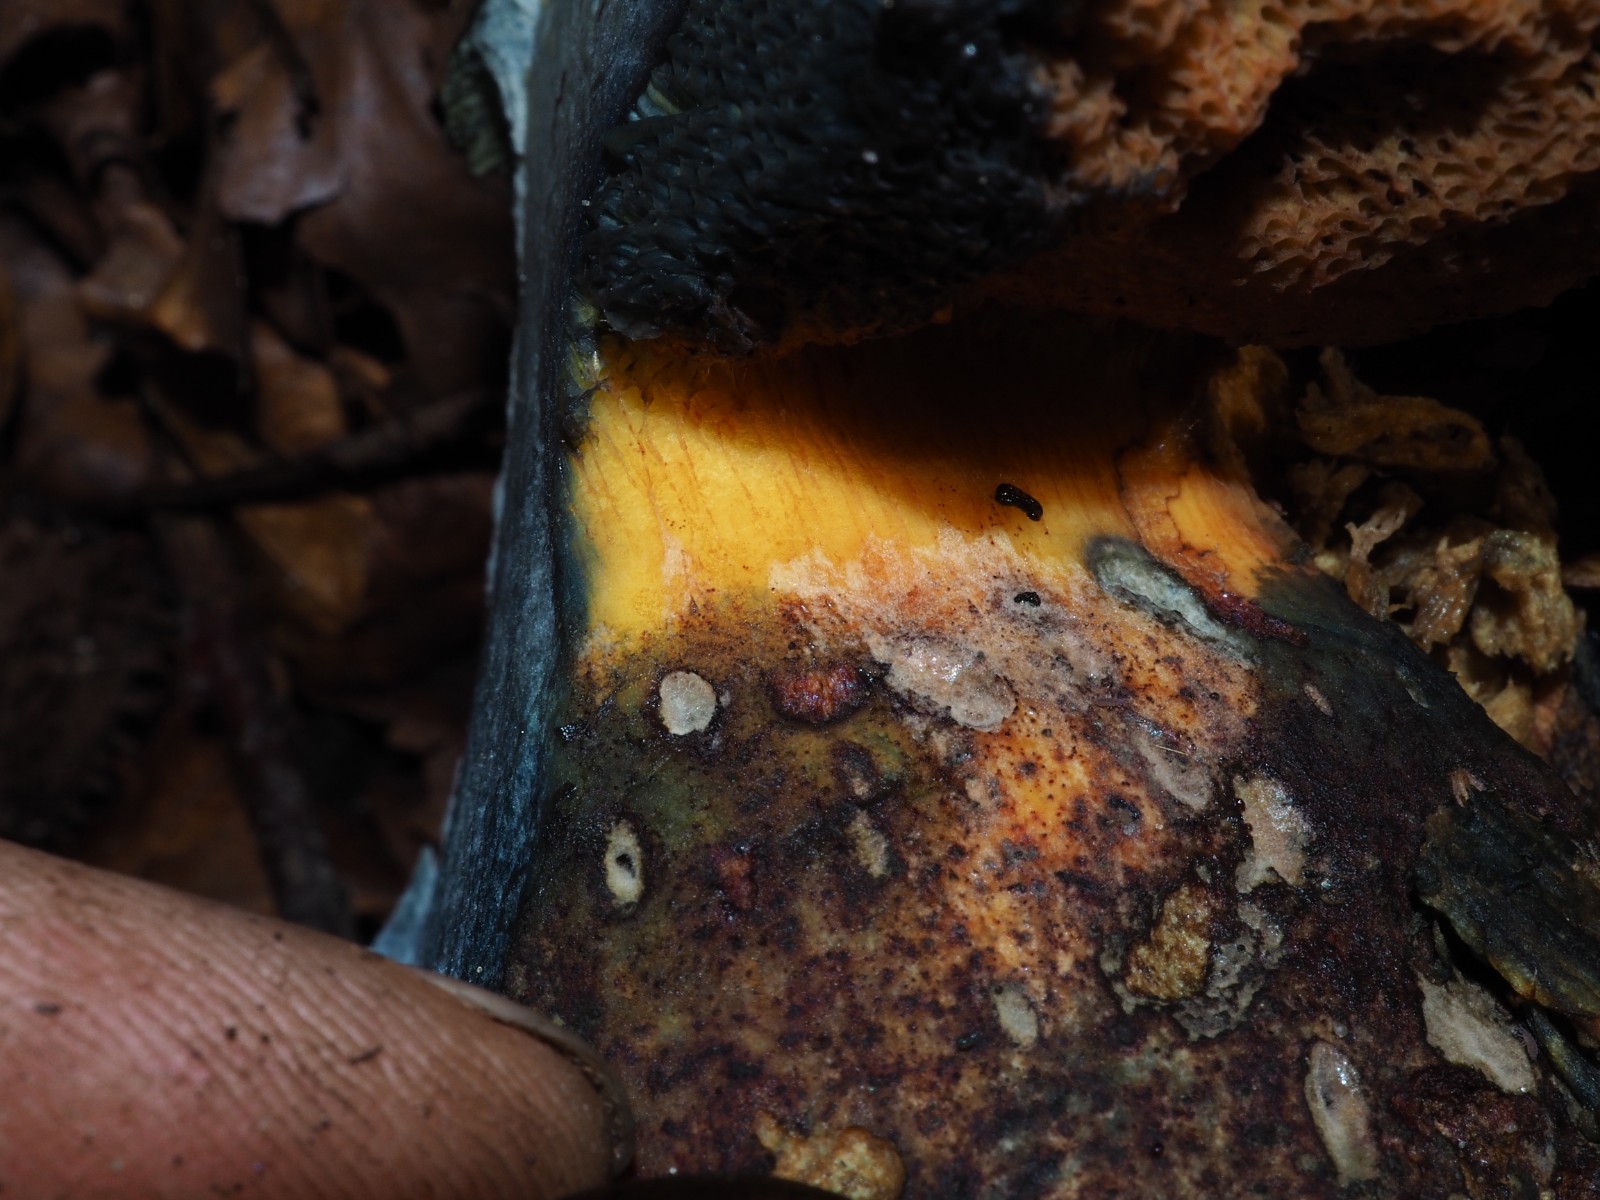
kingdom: Fungi
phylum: Basidiomycota
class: Agaricomycetes
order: Boletales
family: Boletaceae
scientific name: Boletaceae
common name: rørhatfamilien
